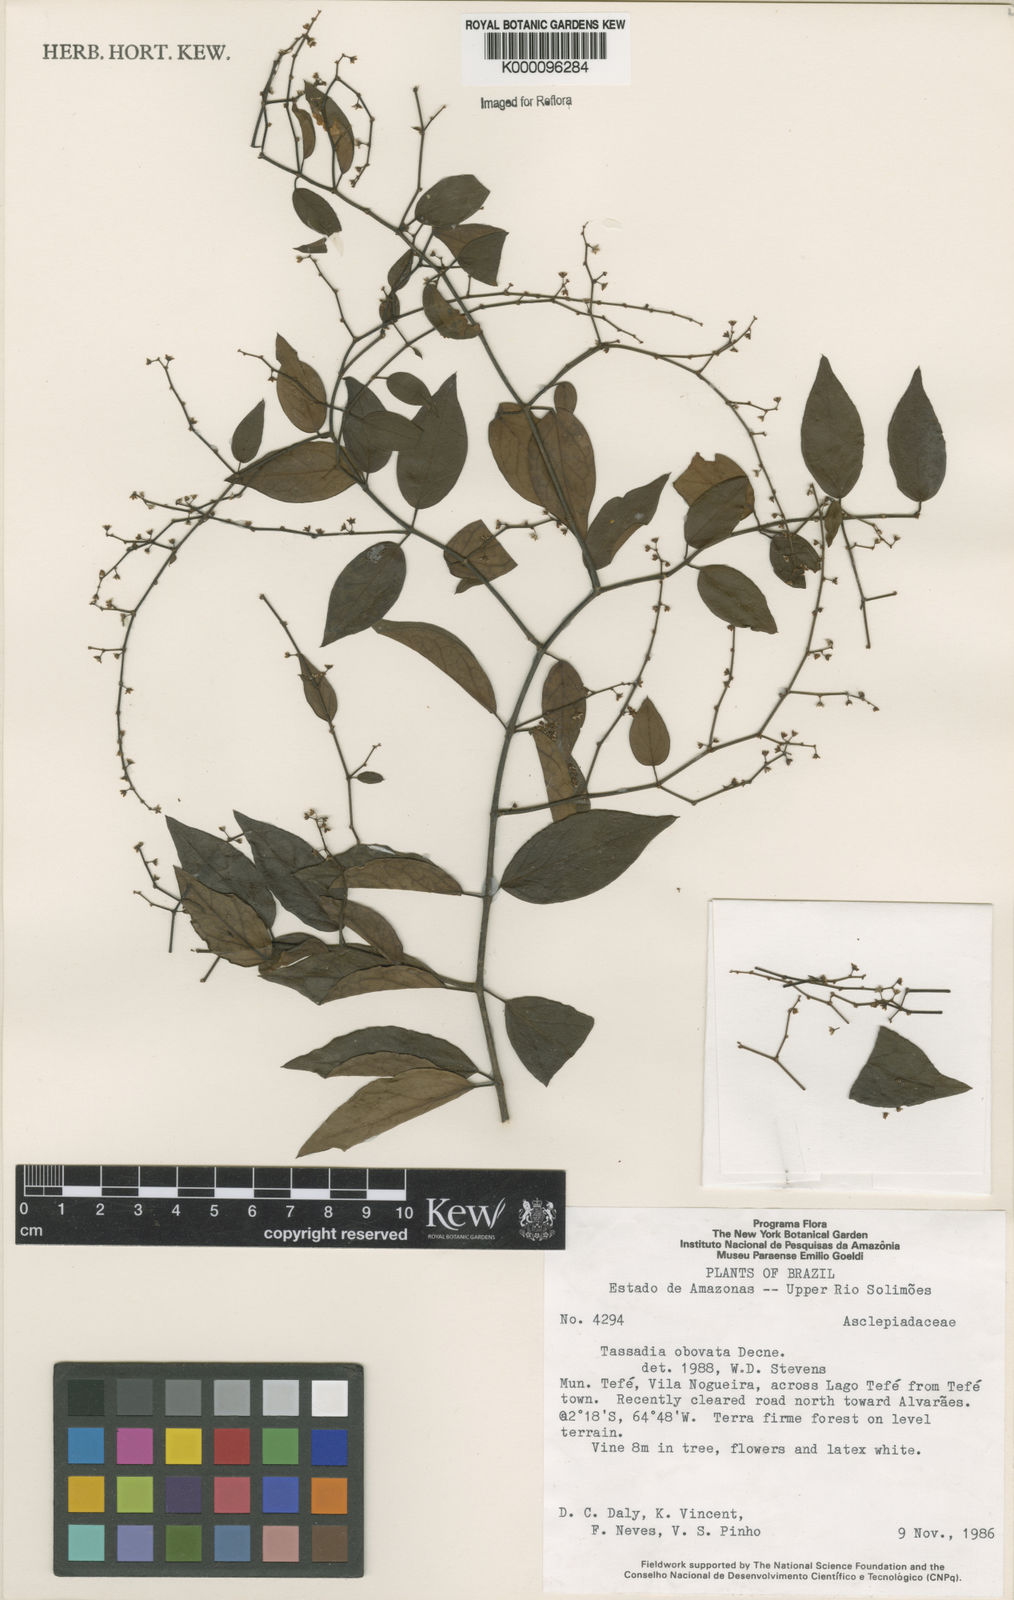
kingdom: Plantae
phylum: Tracheophyta
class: Magnoliopsida
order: Gentianales
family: Apocynaceae
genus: Tassadia
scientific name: Tassadia obovata
